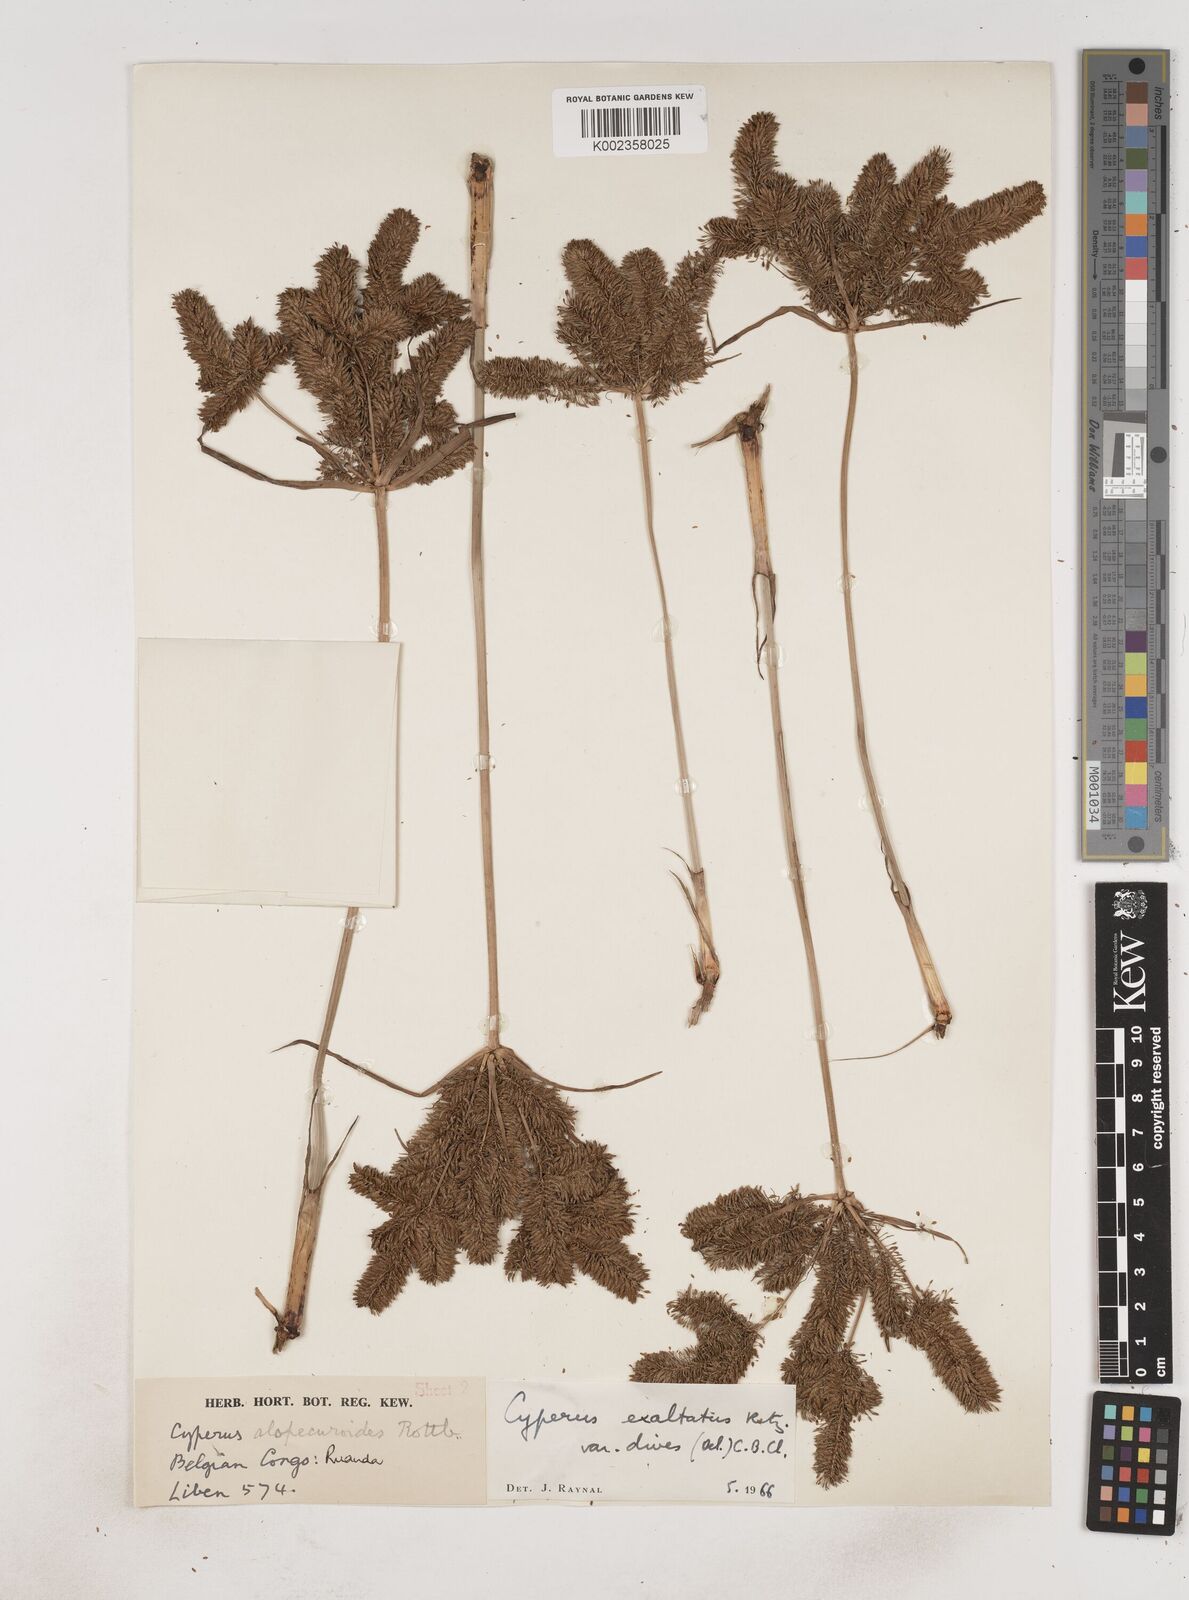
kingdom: Plantae
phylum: Tracheophyta
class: Liliopsida
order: Poales
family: Cyperaceae
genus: Cyperus
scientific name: Cyperus dives
